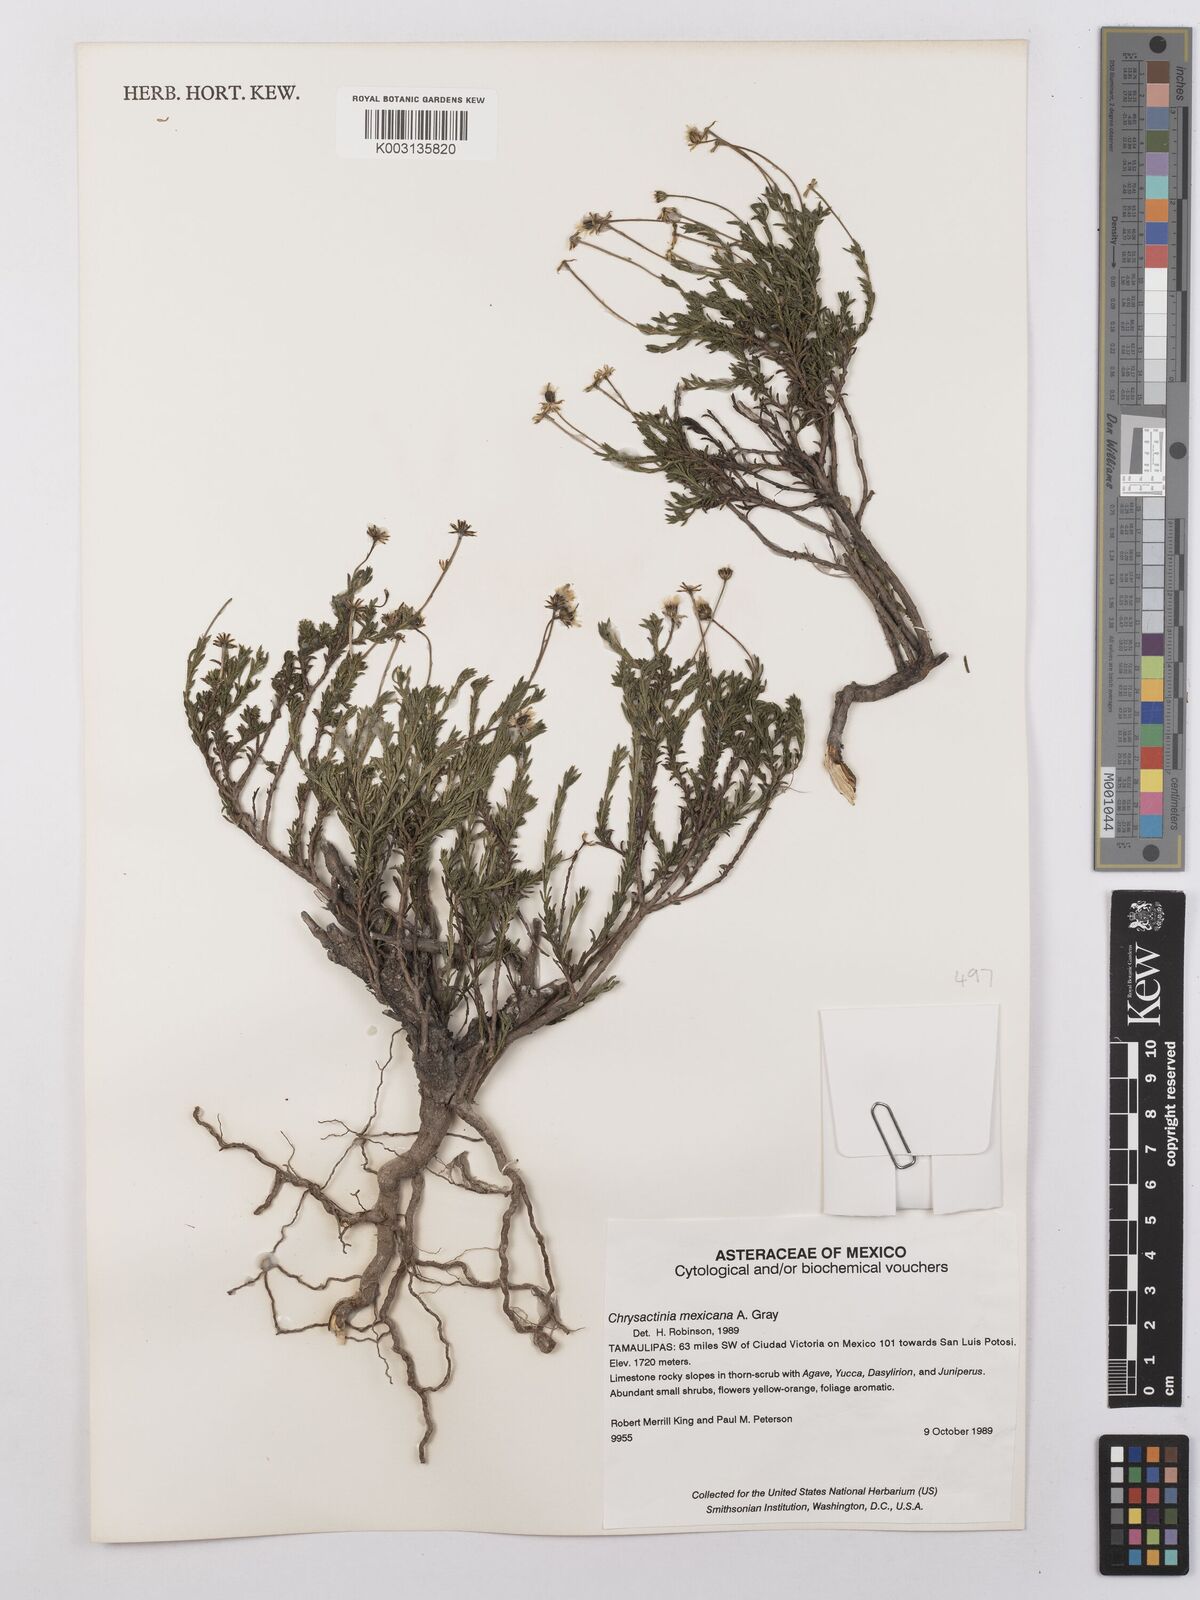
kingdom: Plantae
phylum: Tracheophyta
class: Magnoliopsida
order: Asterales
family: Asteraceae
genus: Chrysactinia
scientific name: Chrysactinia mexicana
